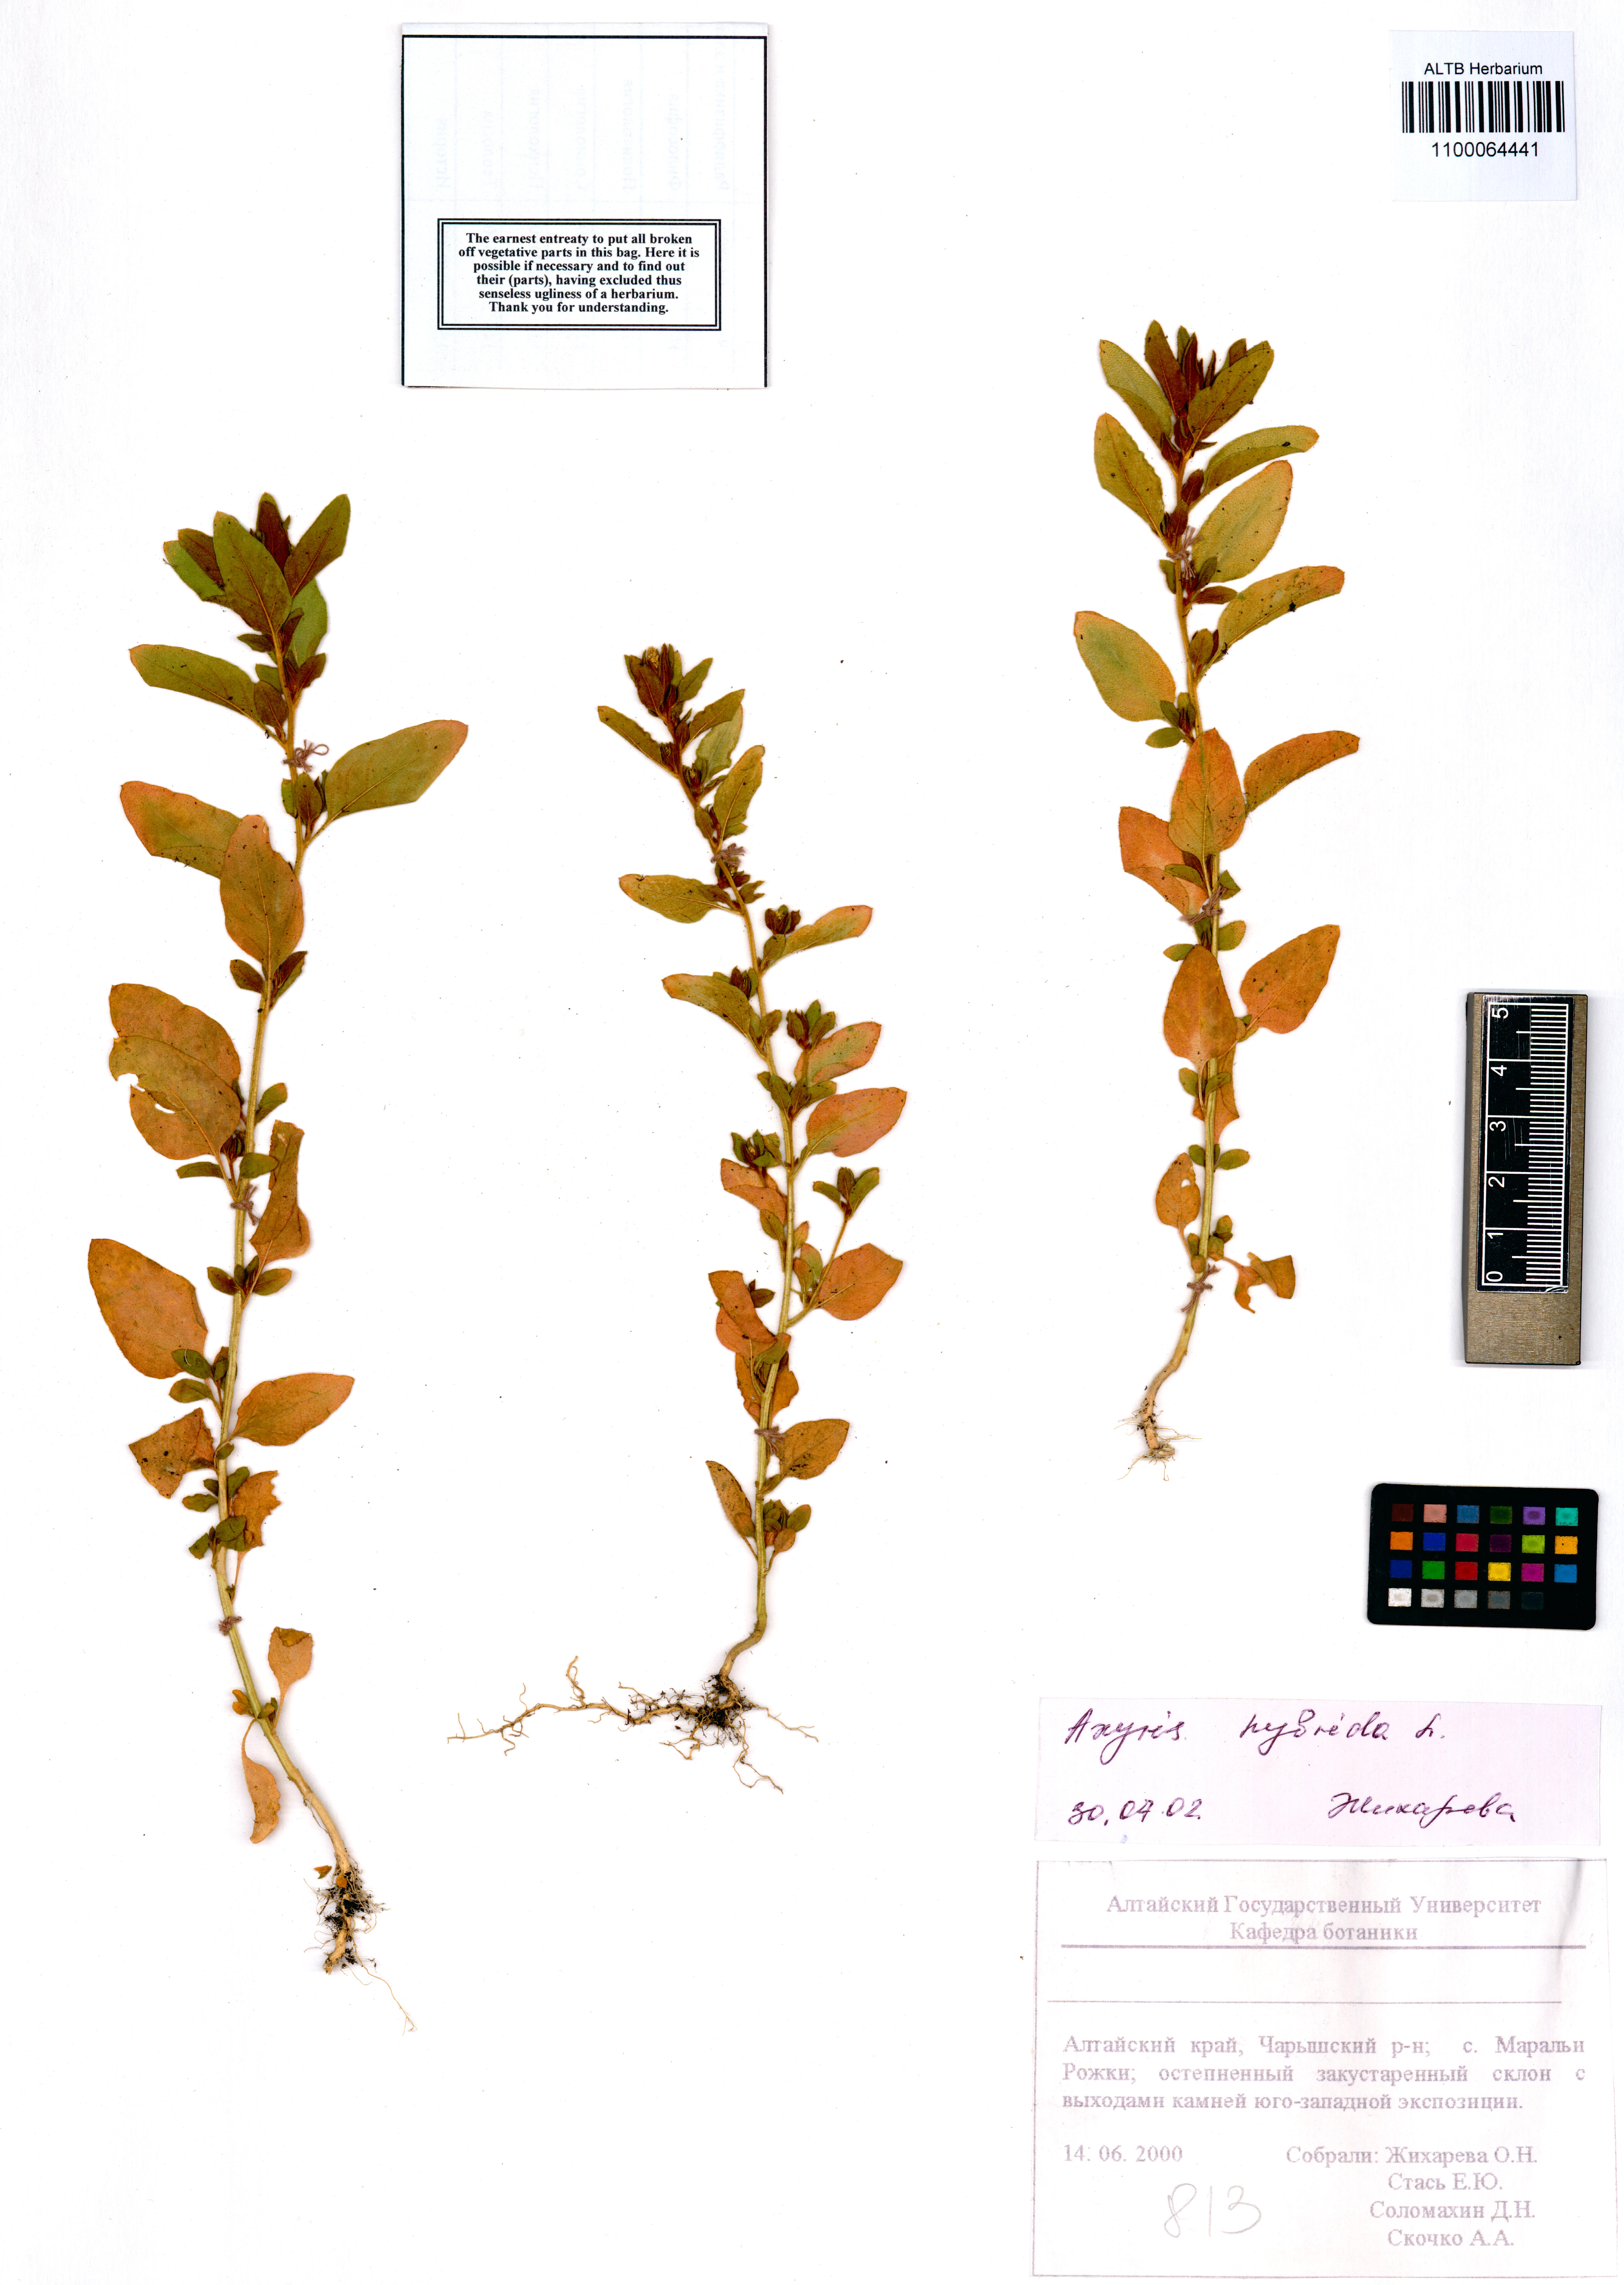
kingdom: Plantae
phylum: Tracheophyta
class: Magnoliopsida
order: Caryophyllales
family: Amaranthaceae
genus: Axyris
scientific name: Axyris hybrida
